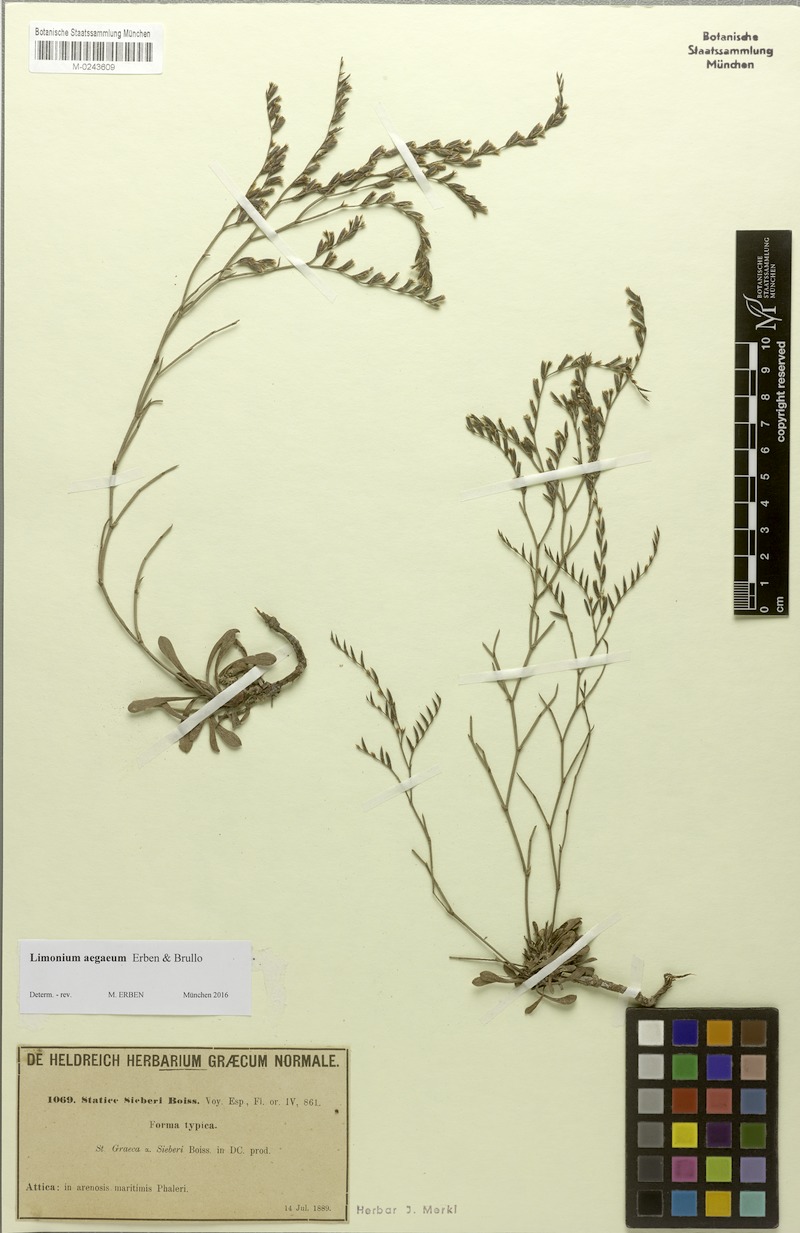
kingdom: Plantae
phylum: Tracheophyta
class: Magnoliopsida
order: Caryophyllales
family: Plumbaginaceae
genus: Limonium
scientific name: Limonium aegaeum
